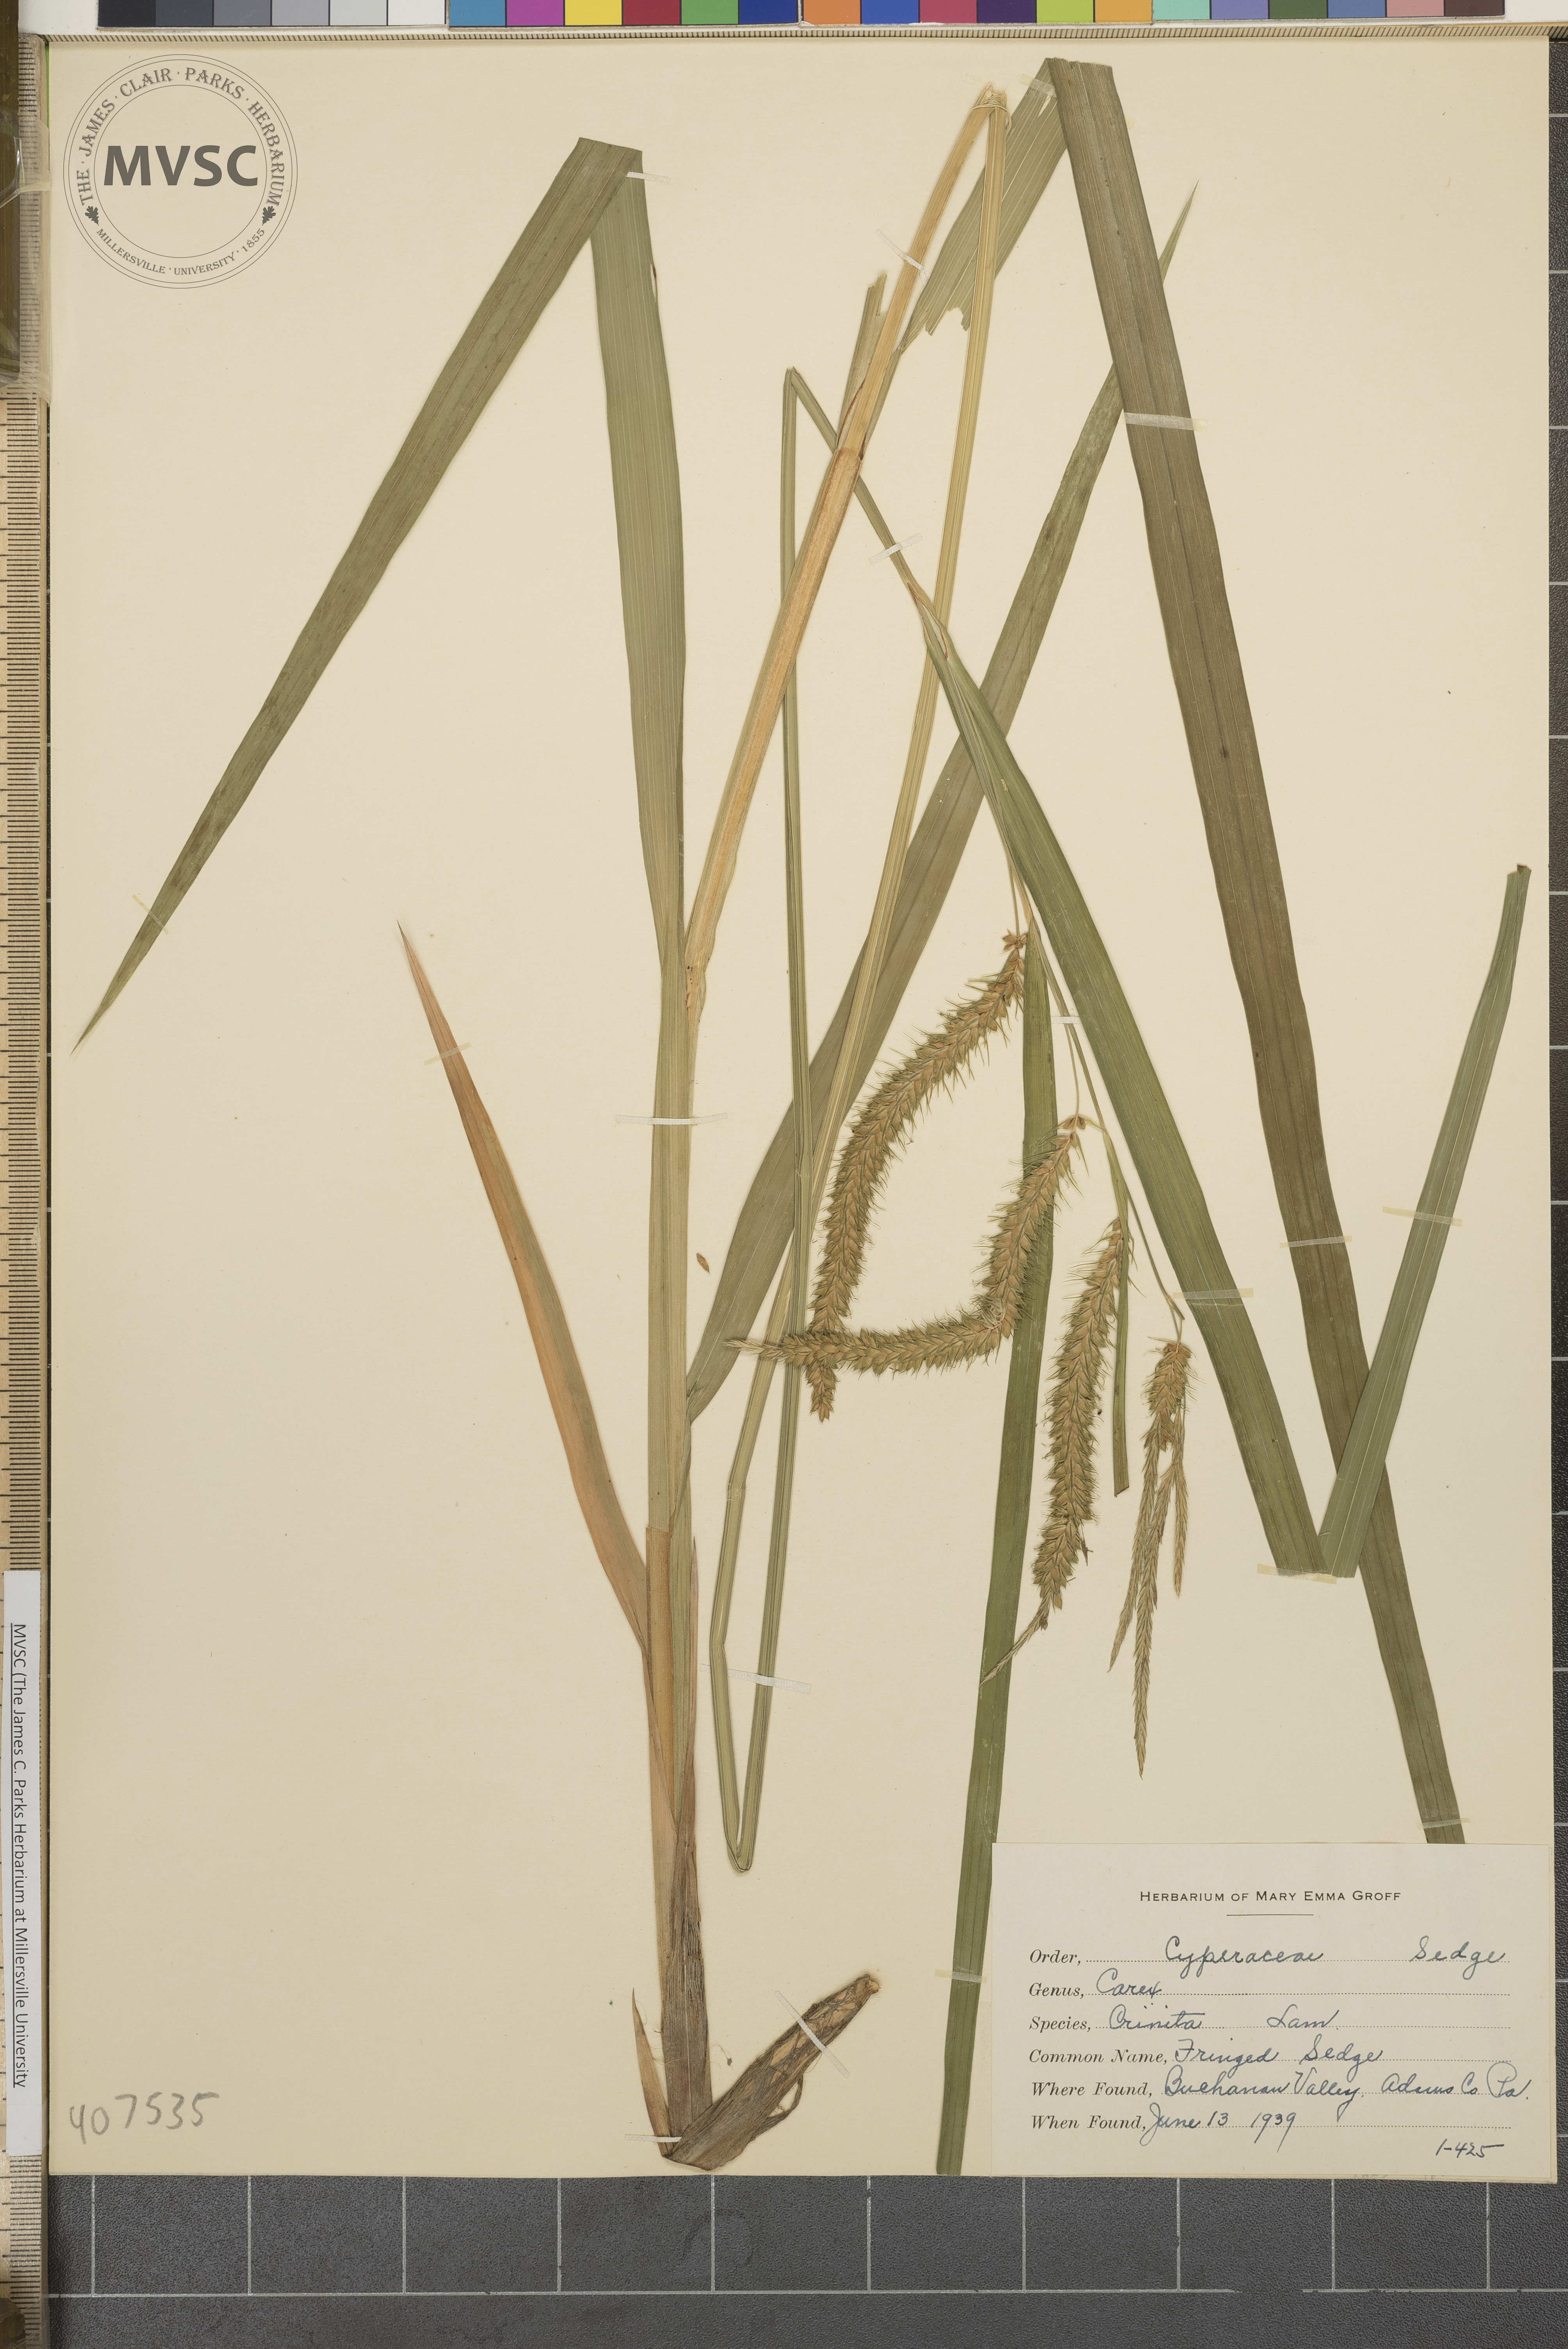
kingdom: Plantae
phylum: Tracheophyta
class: Liliopsida
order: Poales
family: Cyperaceae
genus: Carex
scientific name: Carex crinita
